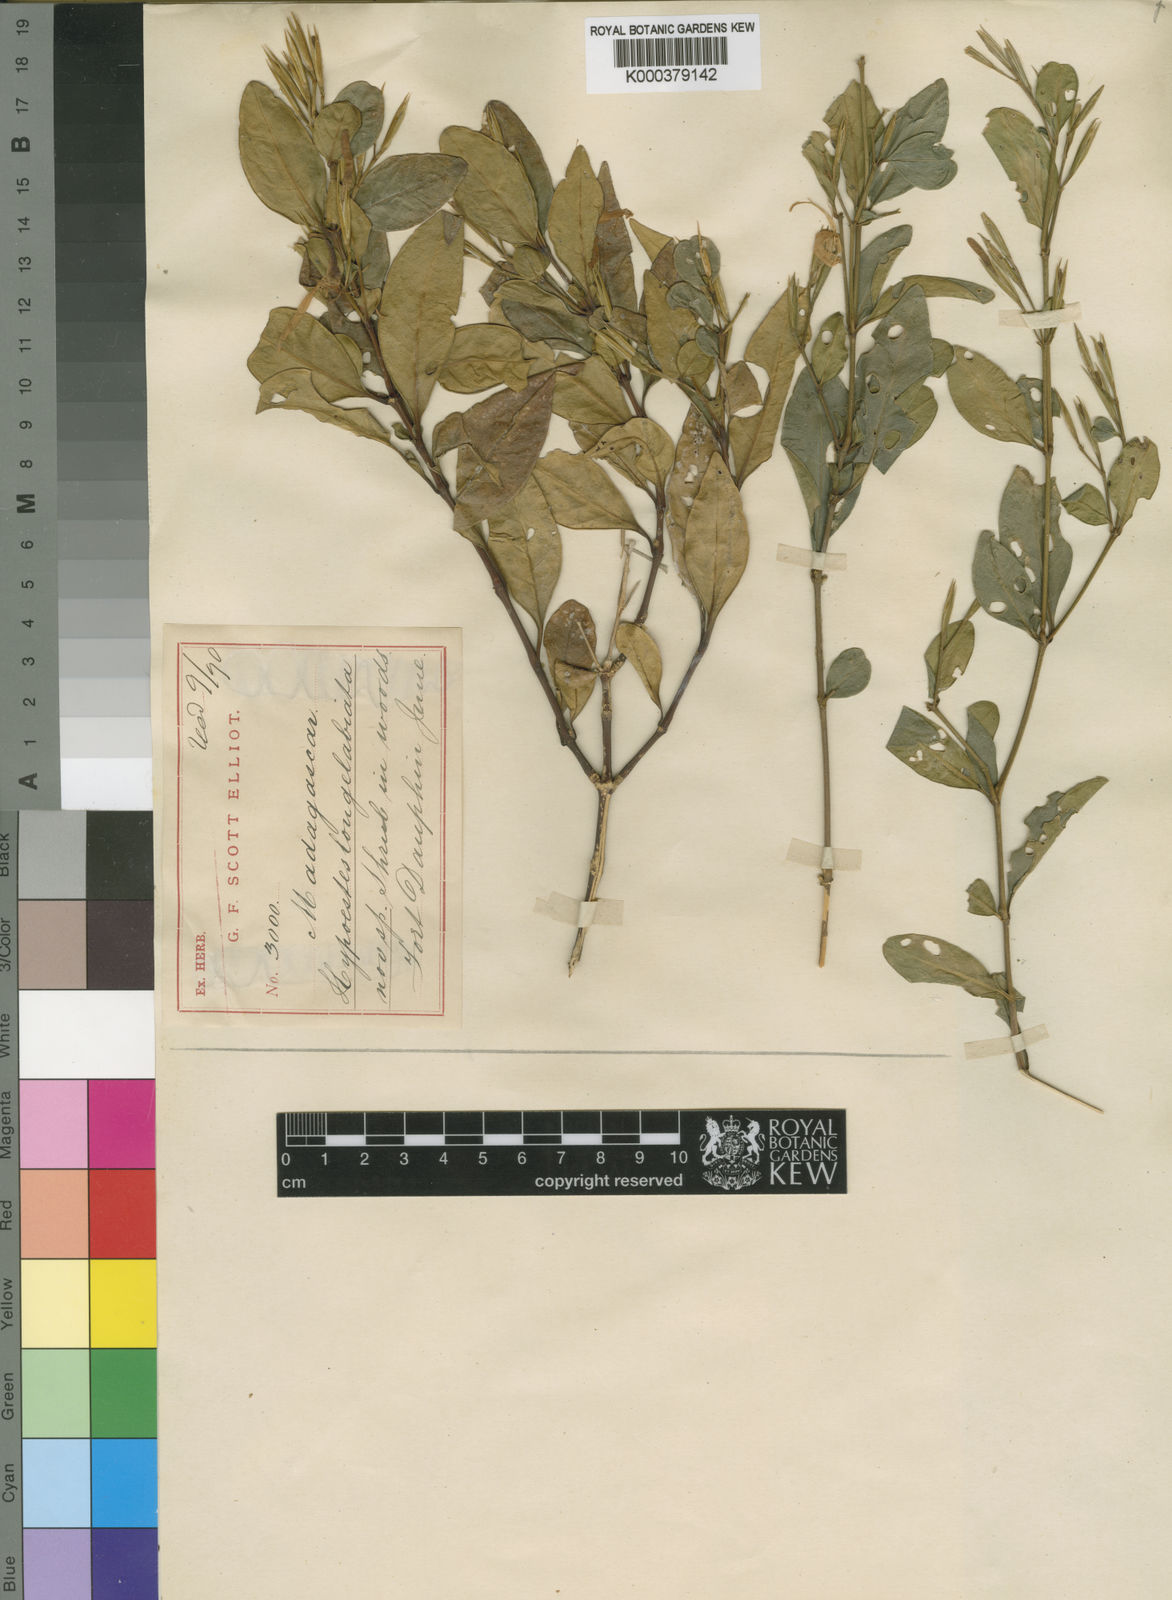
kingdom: Plantae
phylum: Tracheophyta
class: Magnoliopsida
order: Lamiales
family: Acanthaceae
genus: Hypoestes
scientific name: Hypoestes longilabiata
